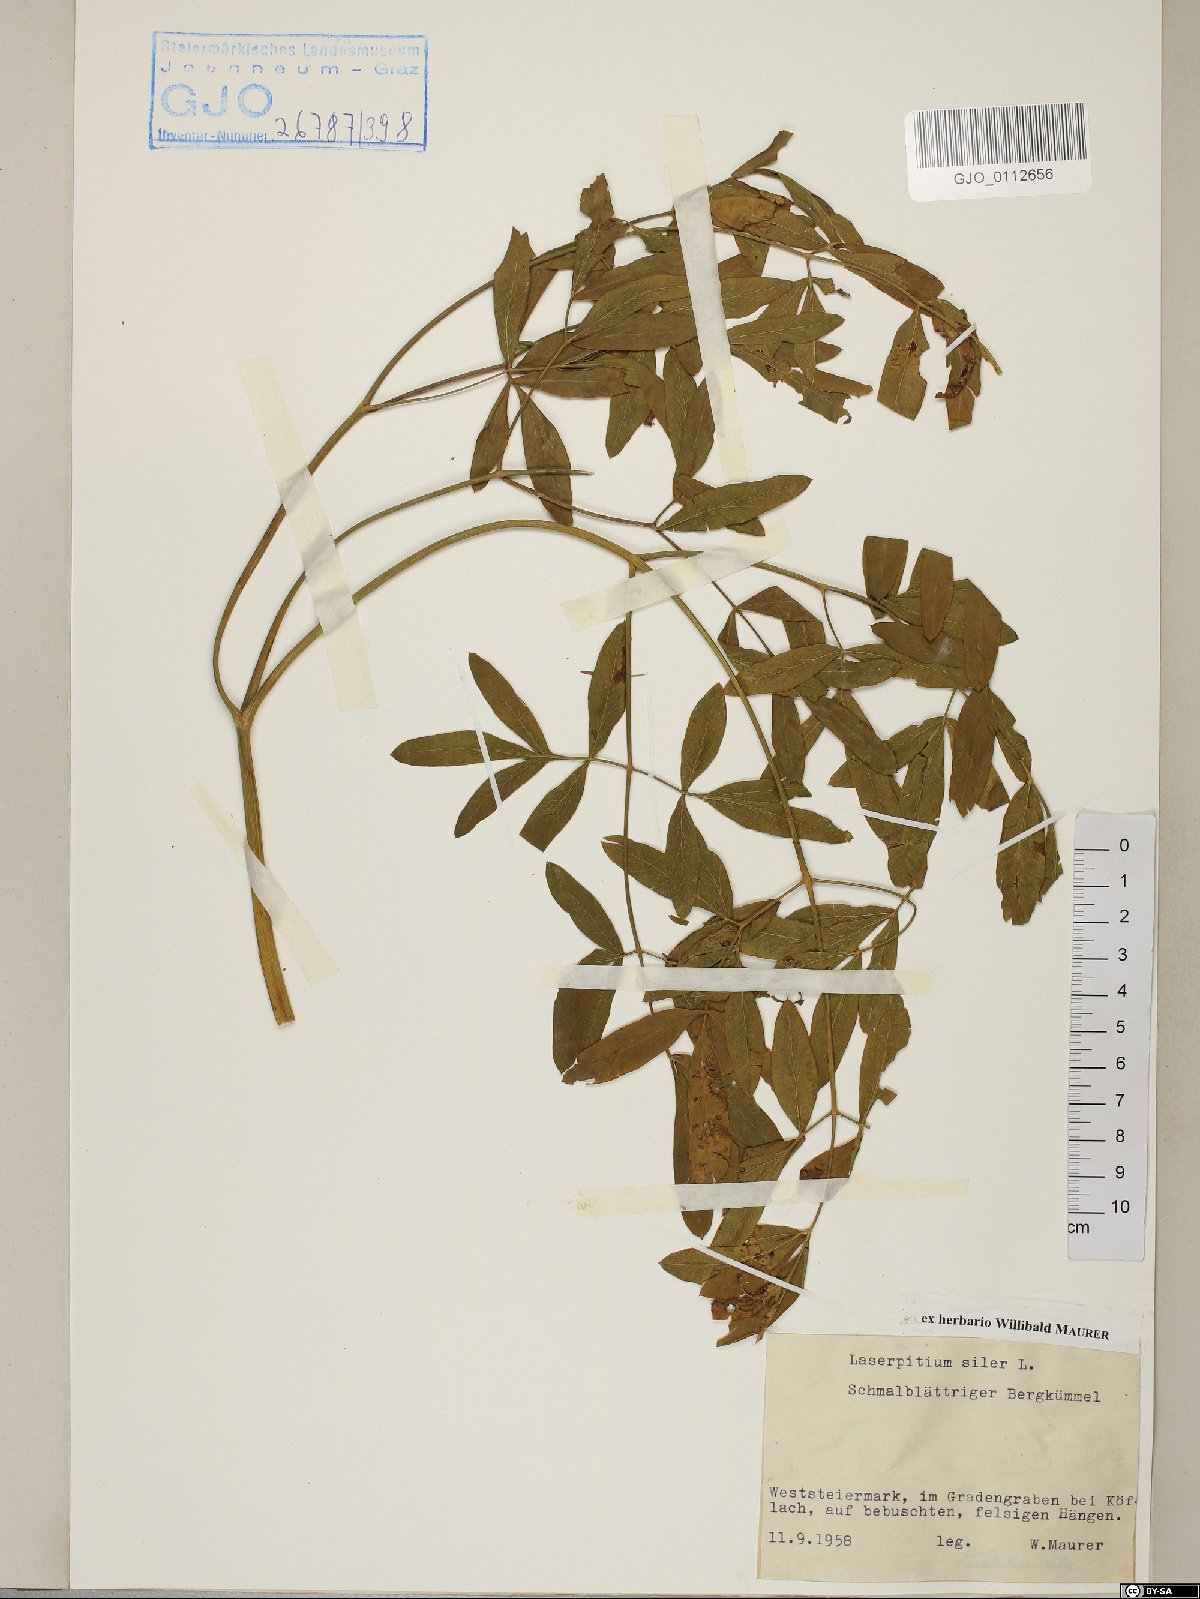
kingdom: Plantae
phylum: Tracheophyta
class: Magnoliopsida
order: Apiales
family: Apiaceae
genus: Siler
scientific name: Siler montanum
